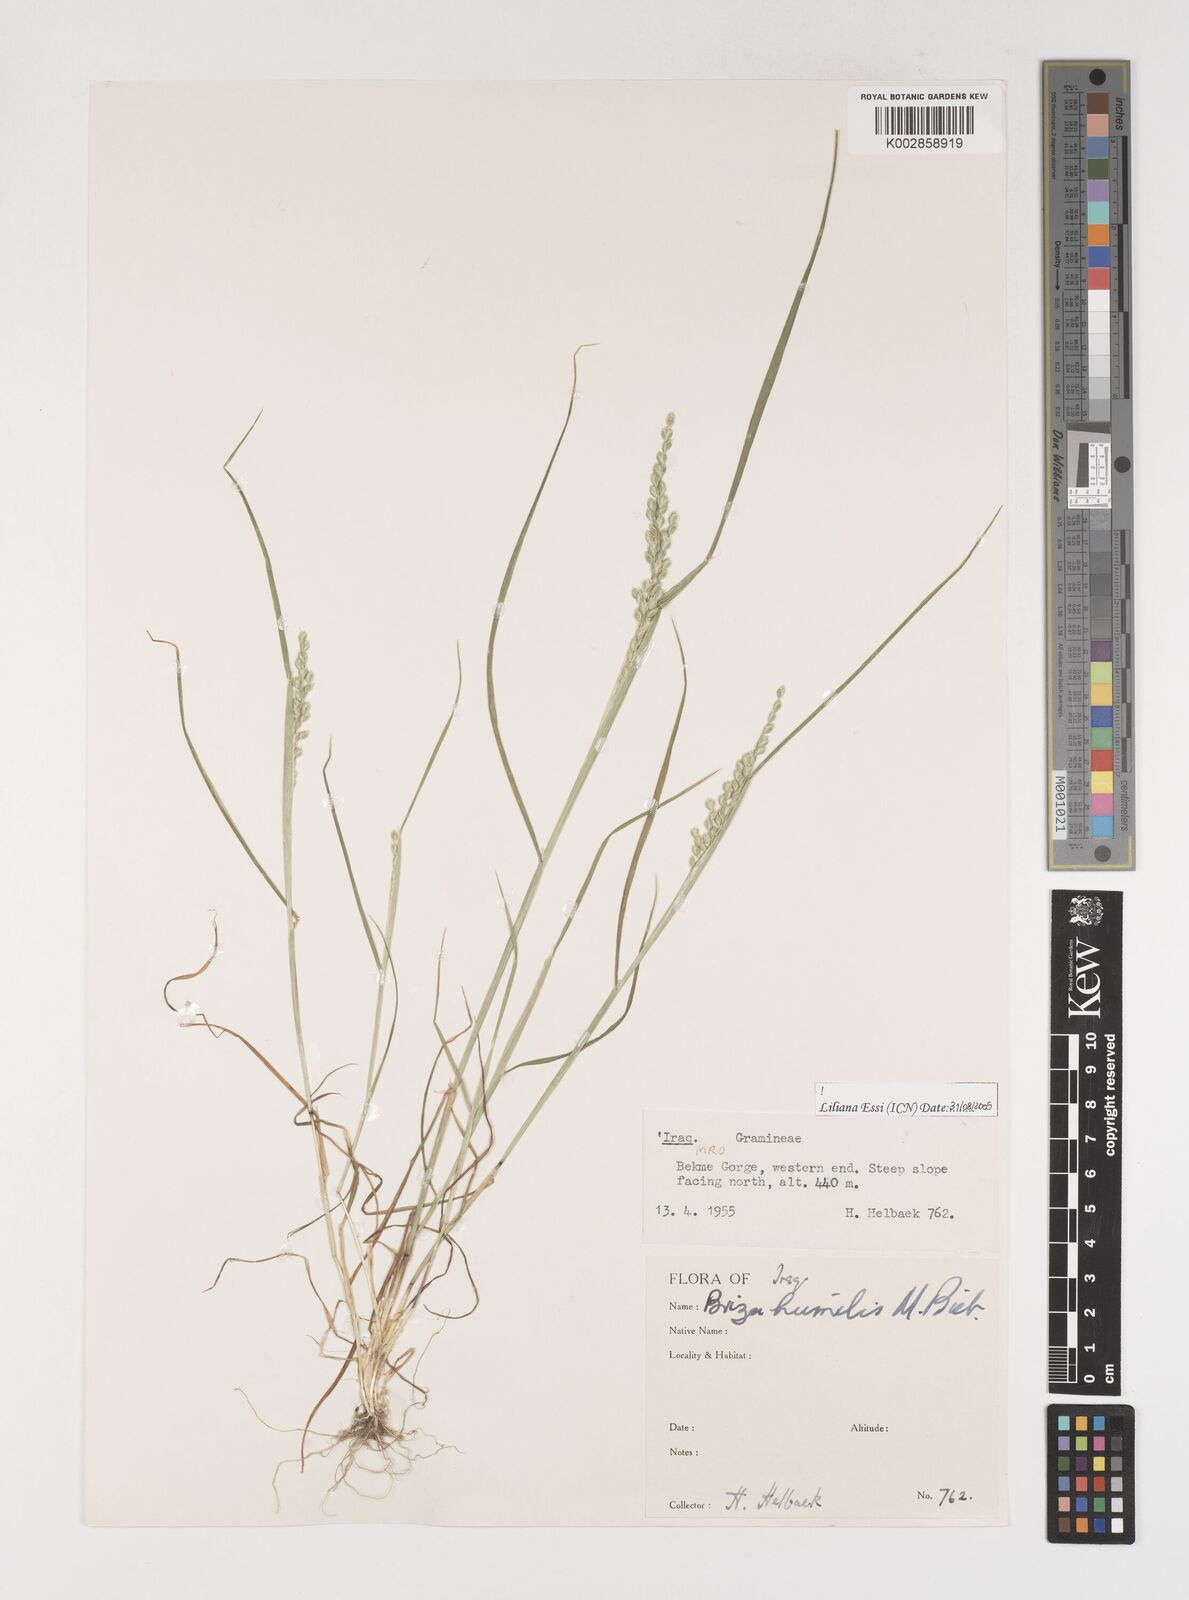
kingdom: Plantae
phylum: Tracheophyta
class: Liliopsida
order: Poales
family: Poaceae
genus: Briza
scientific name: Briza humilis
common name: Spiked quaking grass
